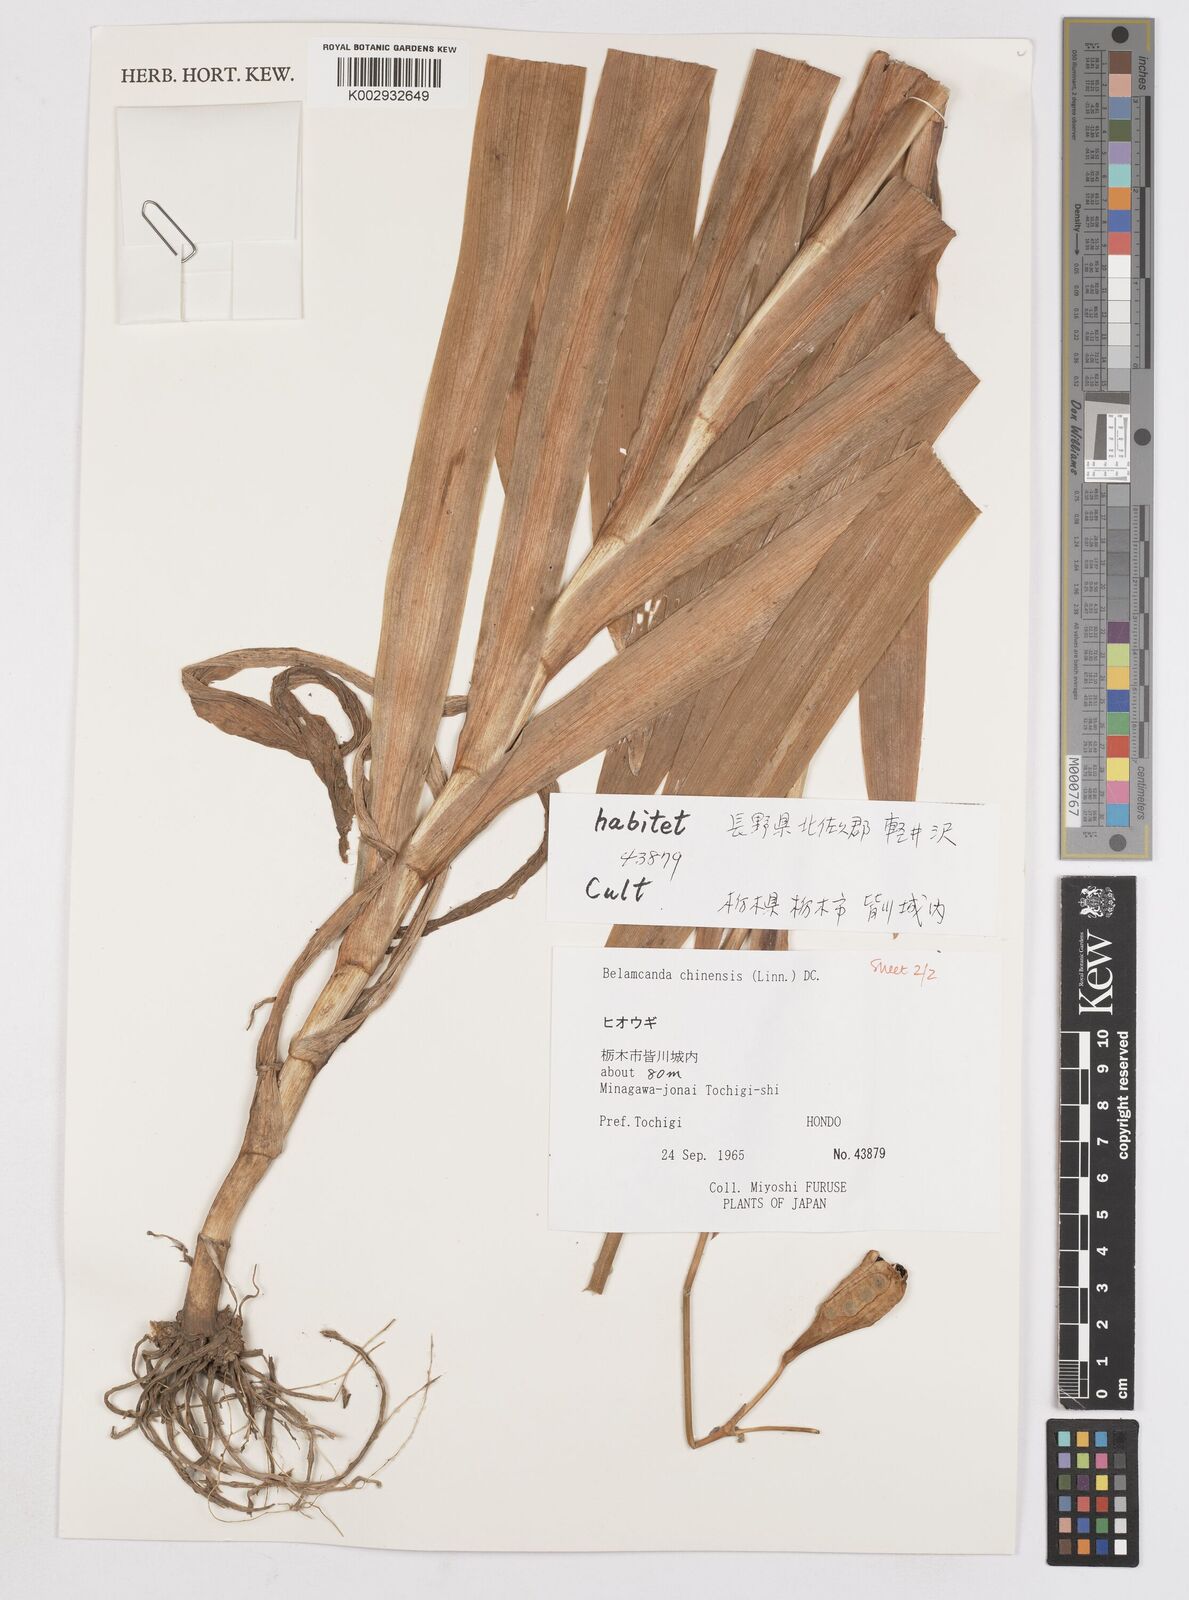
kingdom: Plantae
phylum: Tracheophyta
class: Liliopsida
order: Asparagales
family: Iridaceae
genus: Iris
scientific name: Iris
